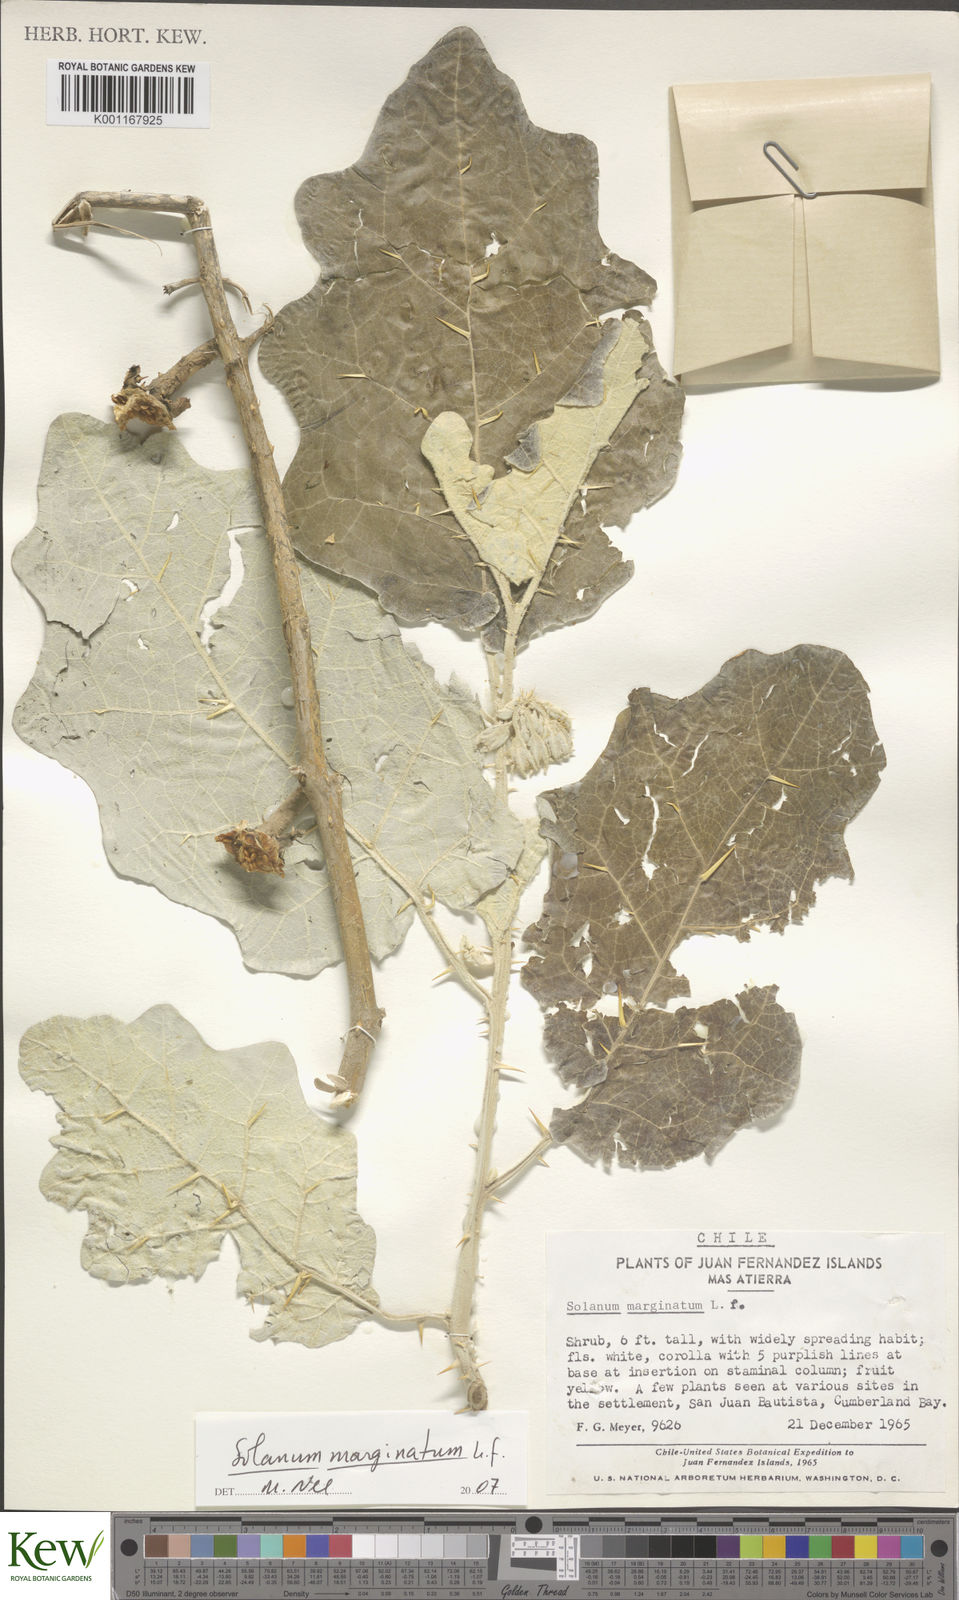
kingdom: Plantae
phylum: Tracheophyta
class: Magnoliopsida
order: Solanales
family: Solanaceae
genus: Solanum
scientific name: Solanum marginatum
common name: Purple african nightshade
